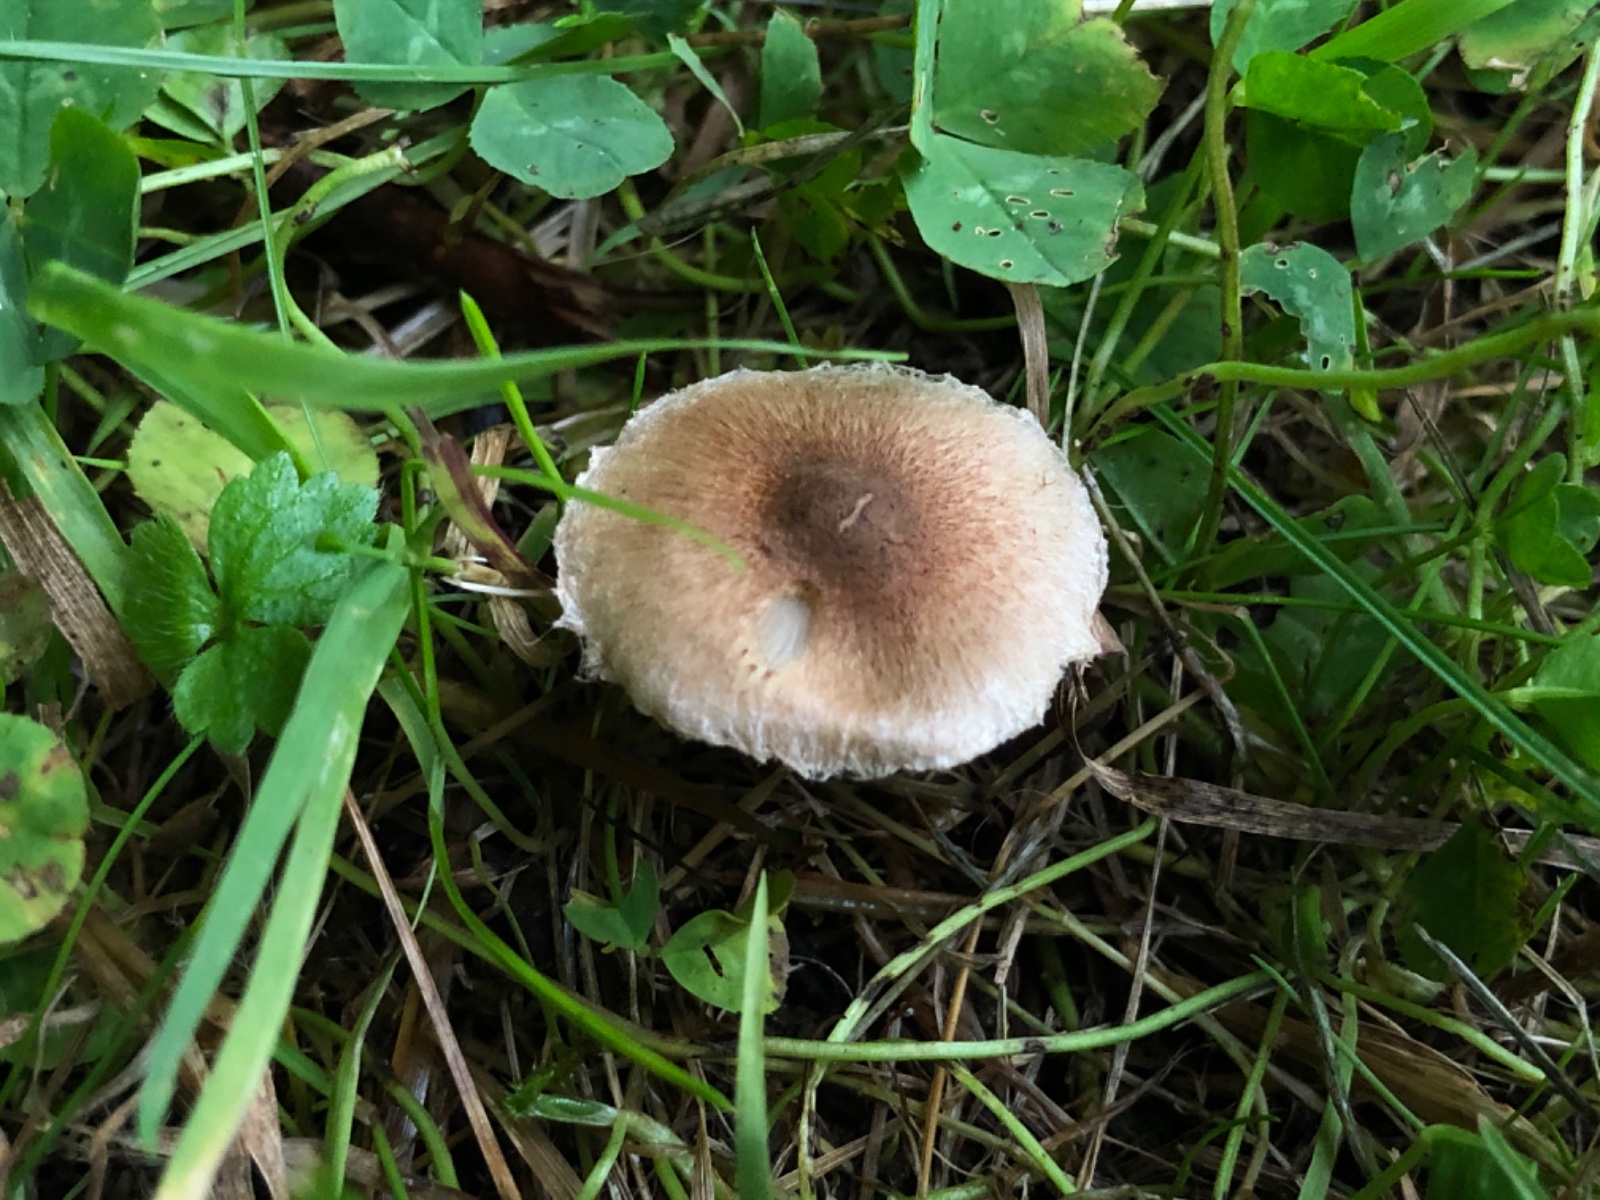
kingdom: Fungi
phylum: Basidiomycota
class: Agaricomycetes
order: Agaricales
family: Inocybaceae
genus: Inocybe
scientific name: Inocybe curvipes
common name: plæne-trævlhat
